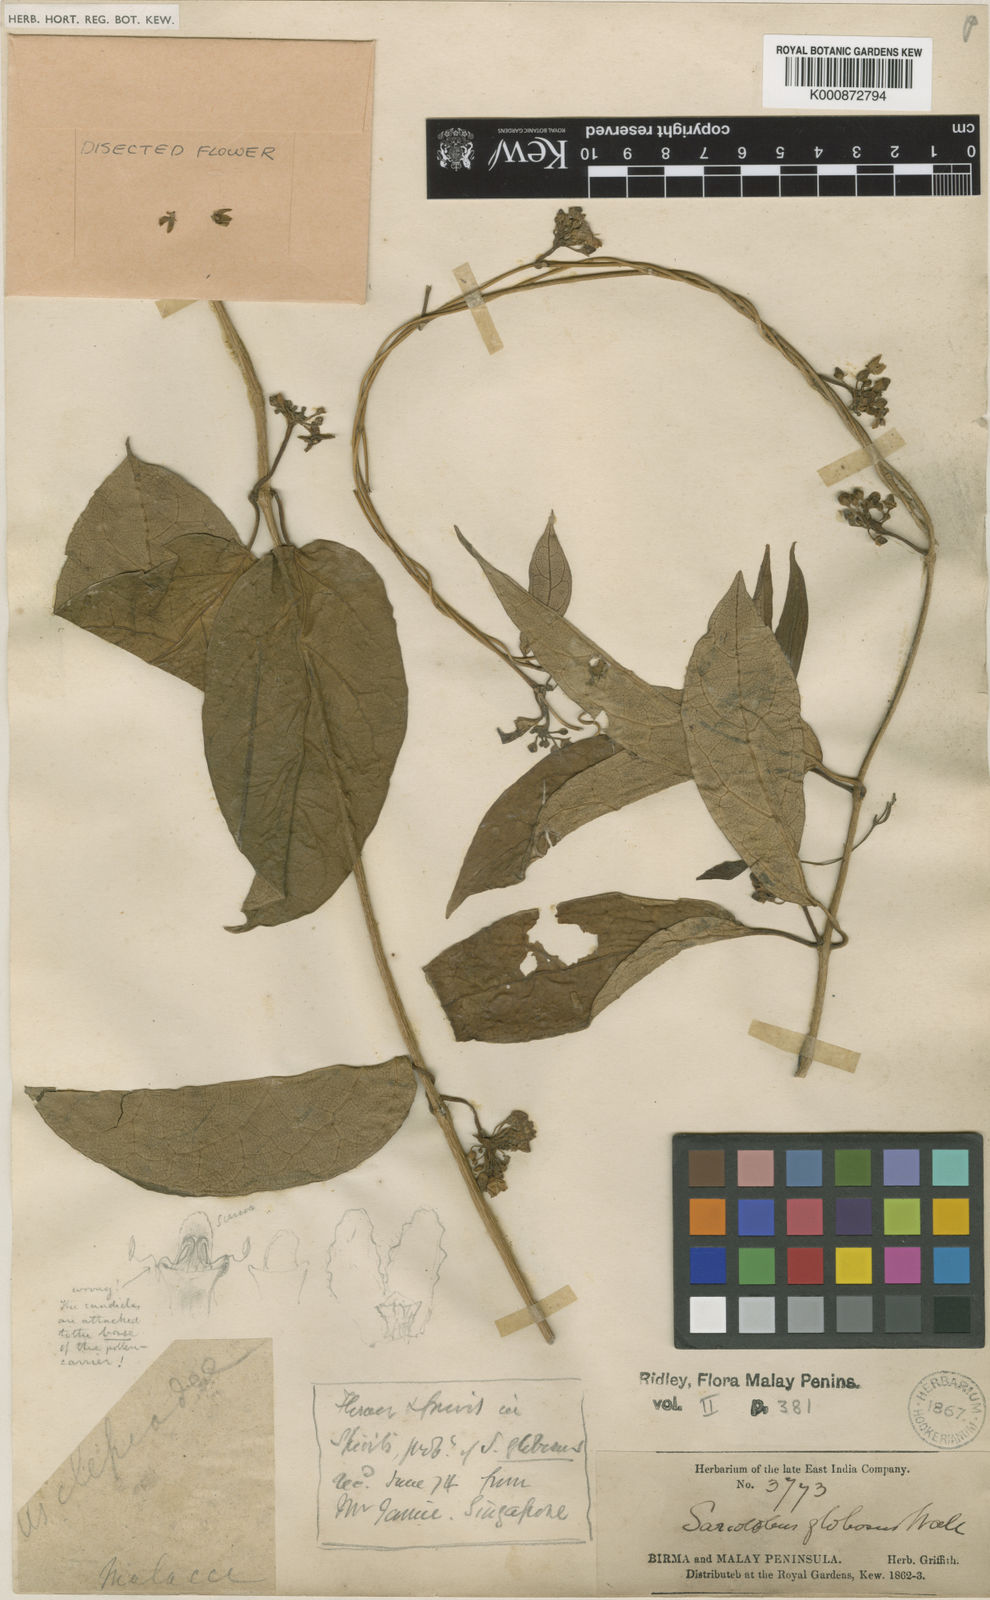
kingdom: Plantae
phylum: Tracheophyta
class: Magnoliopsida
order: Gentianales
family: Apocynaceae
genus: Sarcolobus
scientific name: Sarcolobus globosus
